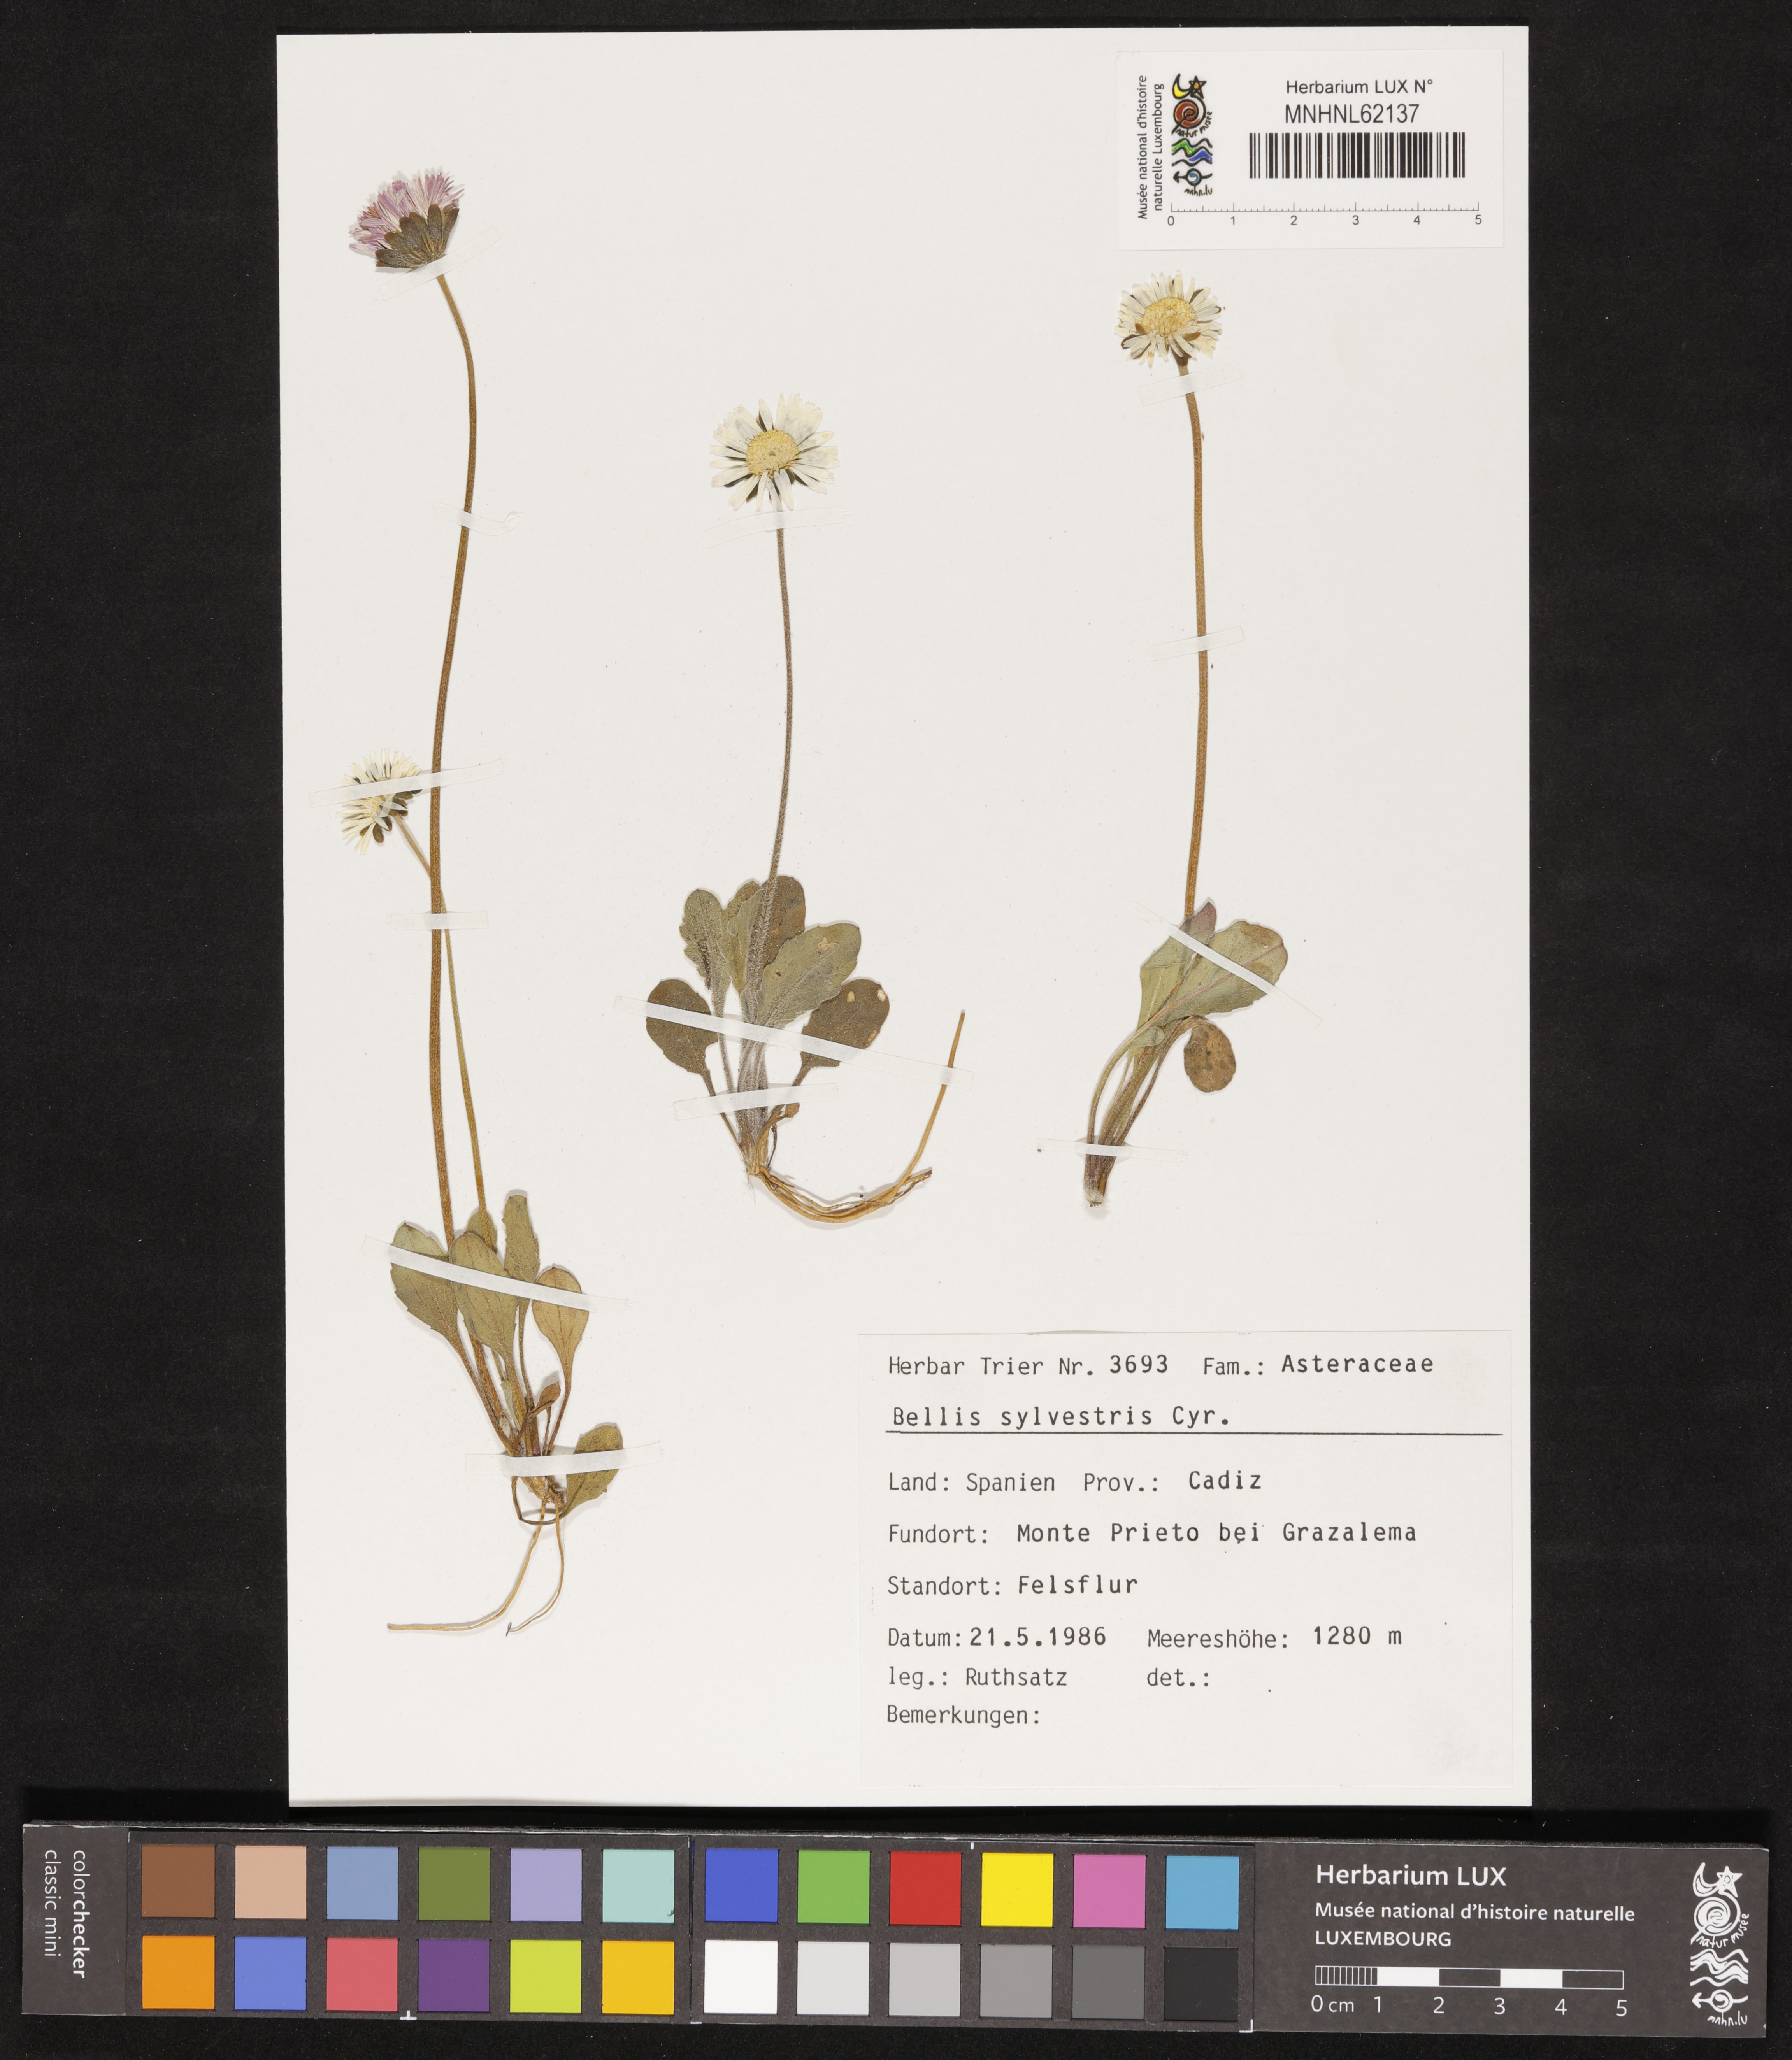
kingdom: Plantae
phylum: Tracheophyta
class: Magnoliopsida
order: Asterales
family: Asteraceae
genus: Bellis
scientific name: Bellis sylvestris
